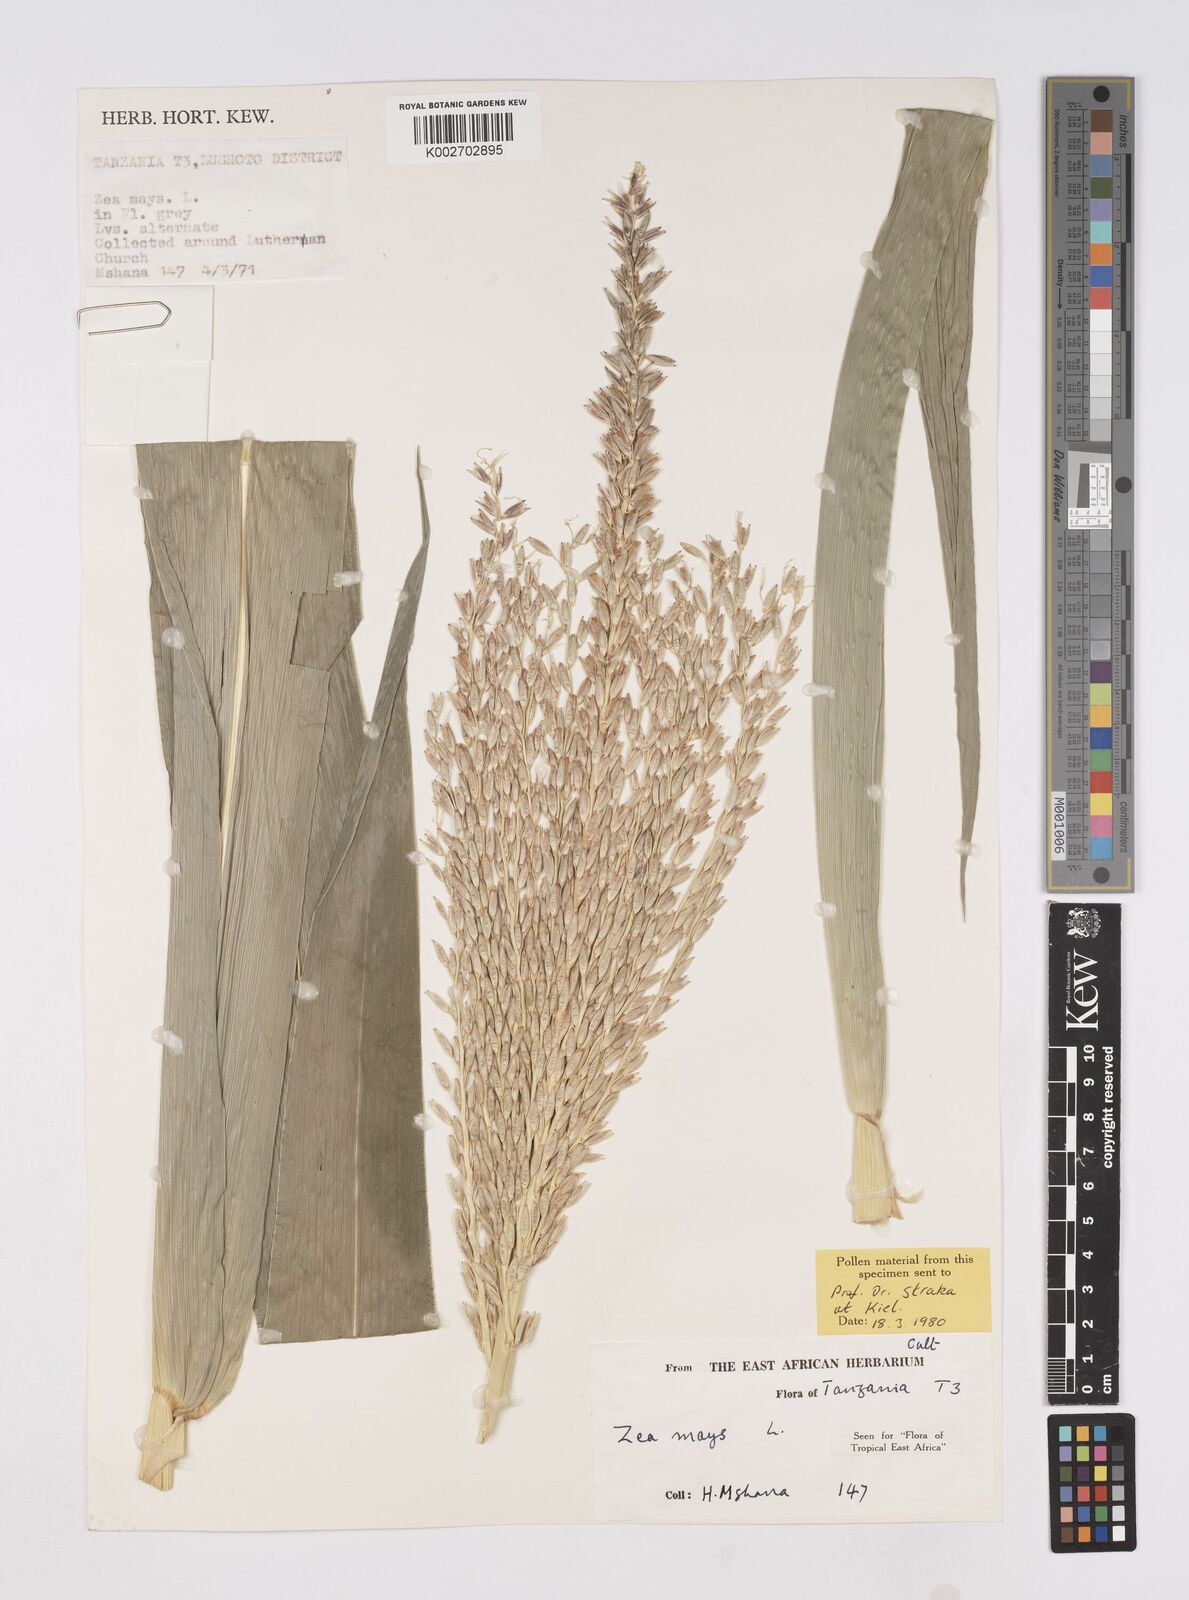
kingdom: Plantae
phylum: Tracheophyta
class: Liliopsida
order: Poales
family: Poaceae
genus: Zea
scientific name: Zea mays
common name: Maize
